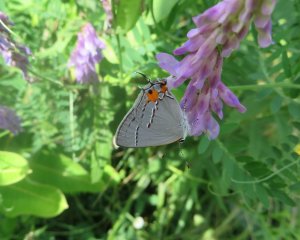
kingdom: Animalia
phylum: Arthropoda
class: Insecta
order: Lepidoptera
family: Lycaenidae
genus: Strymon
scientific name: Strymon melinus
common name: Gray Hairstreak
